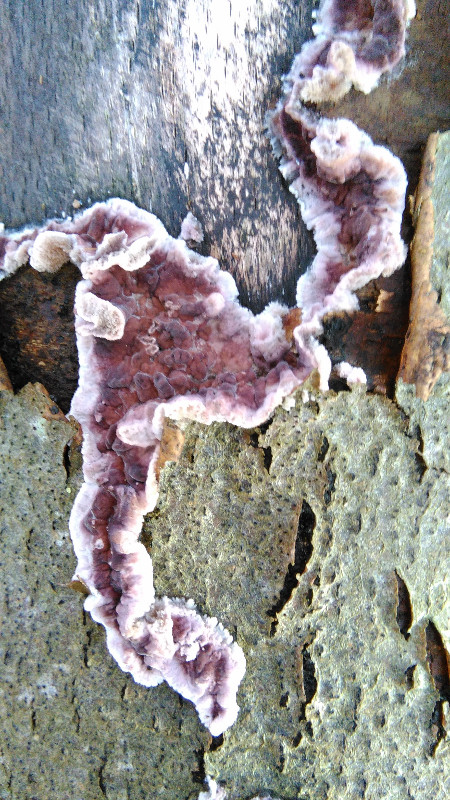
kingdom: Fungi
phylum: Basidiomycota
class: Agaricomycetes
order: Agaricales
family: Cyphellaceae
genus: Chondrostereum
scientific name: Chondrostereum purpureum
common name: purpurlædersvamp
